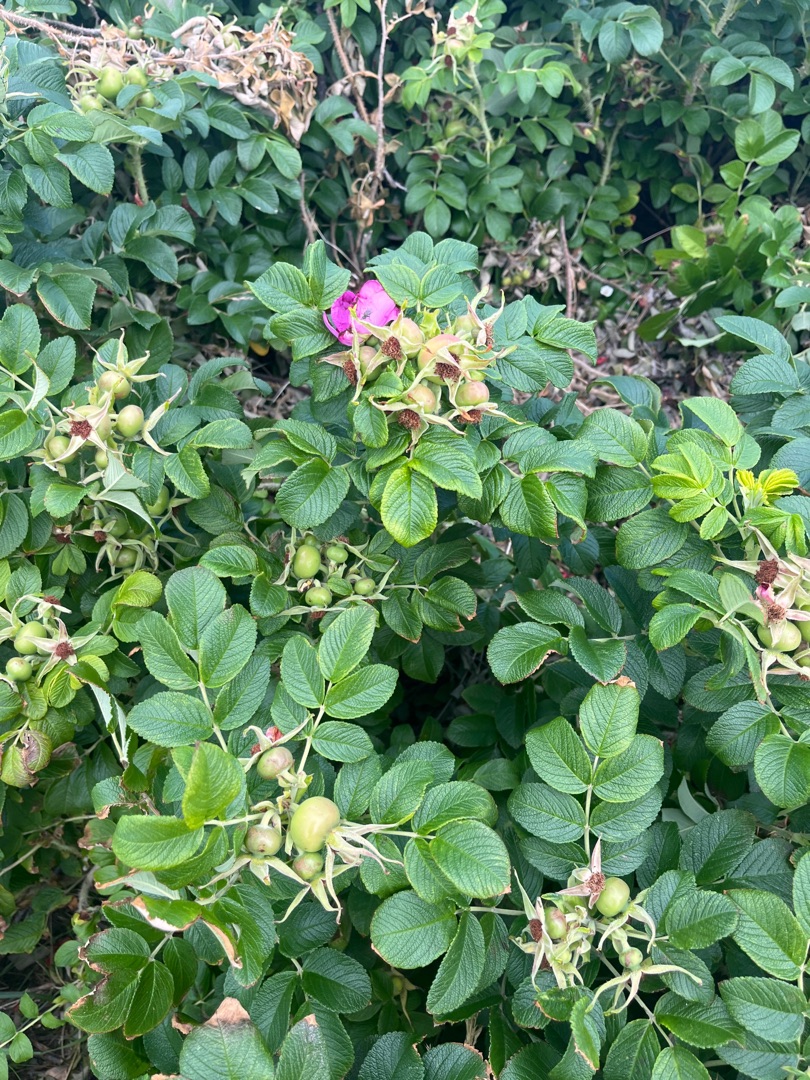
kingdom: Plantae
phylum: Tracheophyta
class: Magnoliopsida
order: Rosales
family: Rosaceae
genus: Rosa
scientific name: Rosa rugosa
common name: Rynket rose
